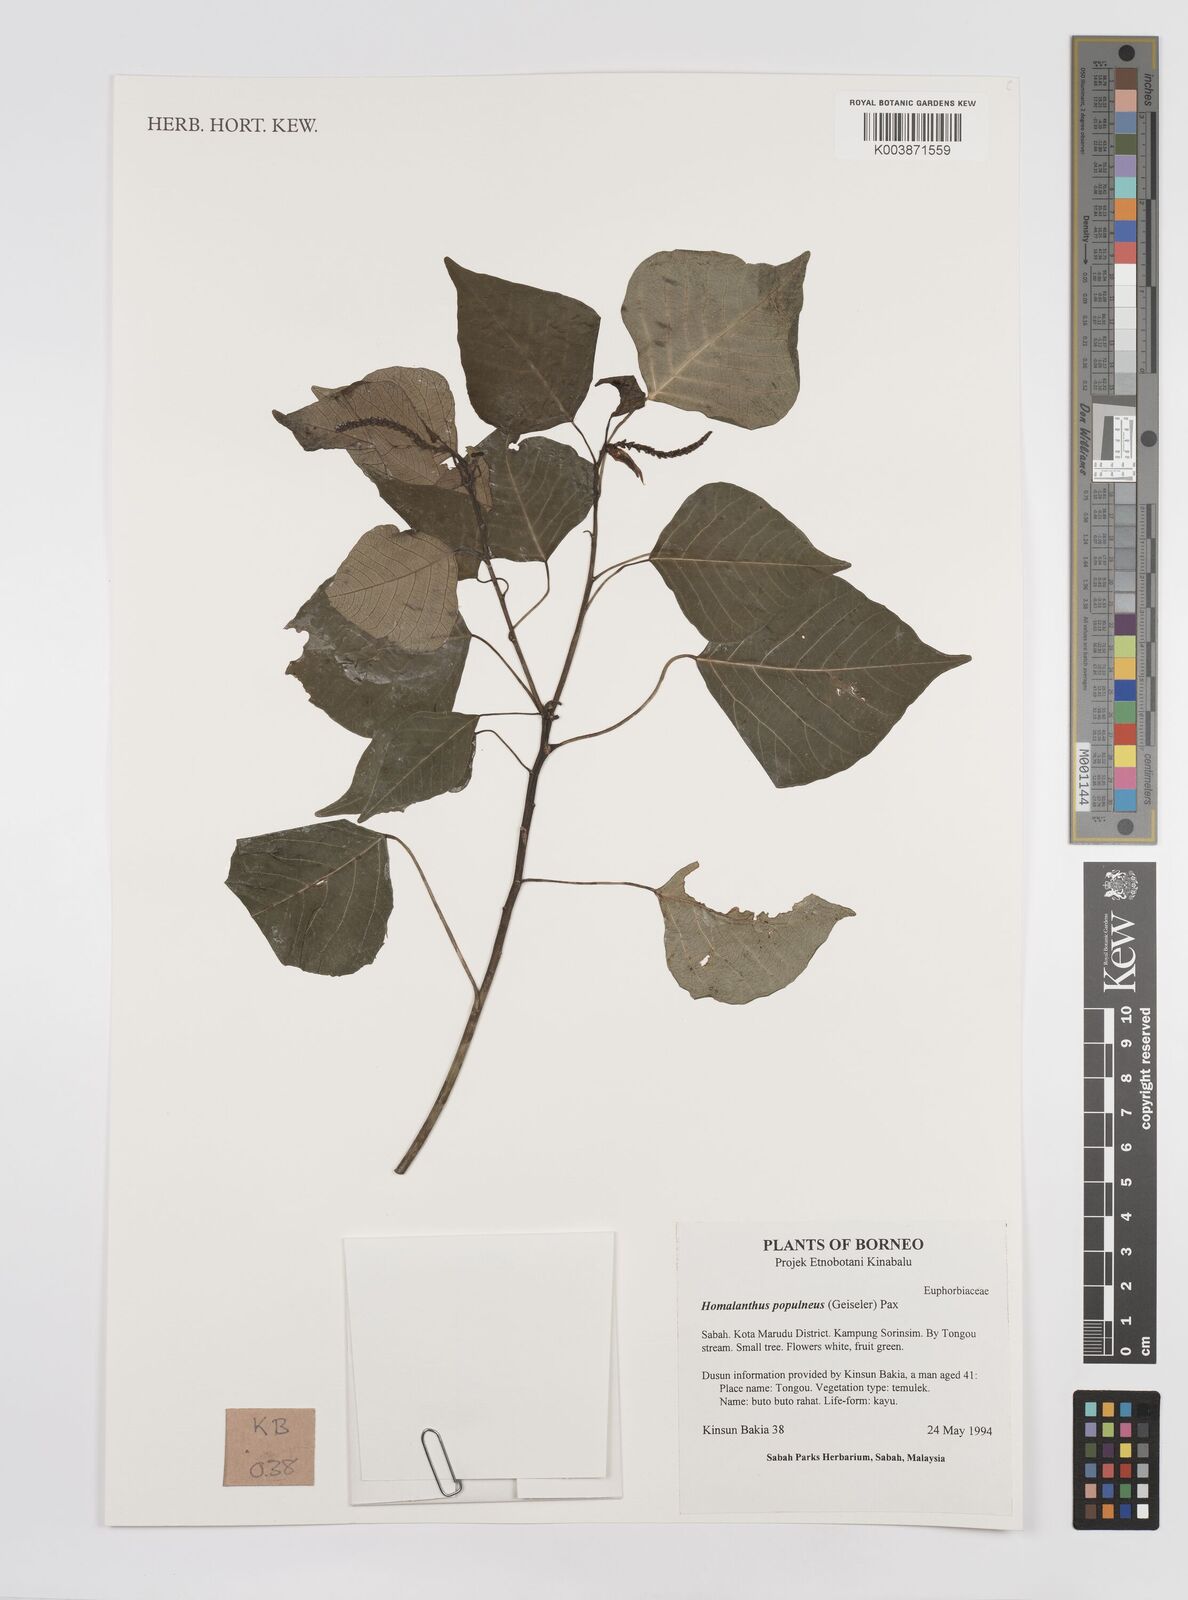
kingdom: Plantae
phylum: Tracheophyta
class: Magnoliopsida
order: Malpighiales
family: Euphorbiaceae
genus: Homalanthus
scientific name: Homalanthus populneus
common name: Spurge
